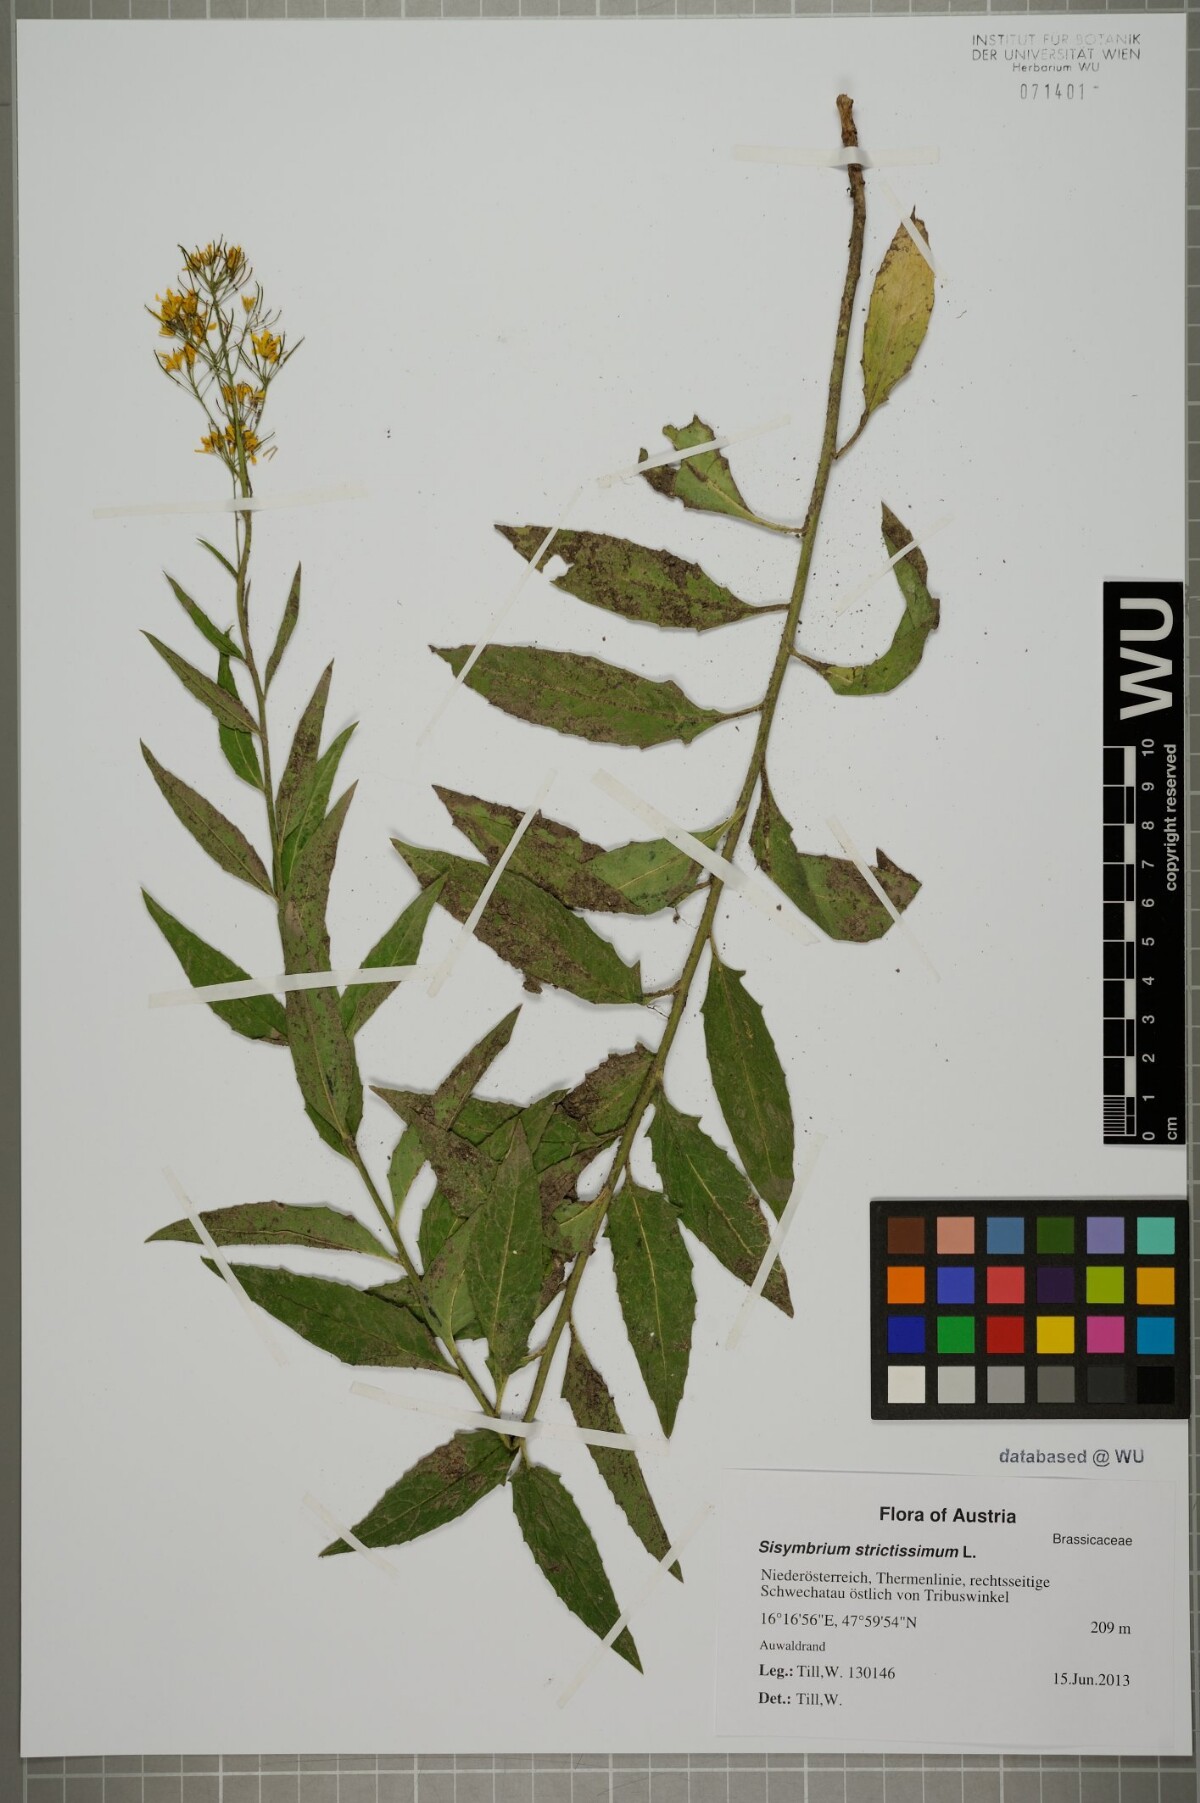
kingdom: Plantae
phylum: Tracheophyta
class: Magnoliopsida
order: Brassicales
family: Brassicaceae
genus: Sisymbrium
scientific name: Sisymbrium strictissimum
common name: Perennial rocket
